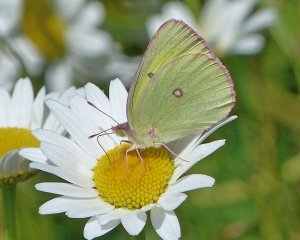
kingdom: Animalia
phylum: Arthropoda
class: Insecta
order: Lepidoptera
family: Pieridae
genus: Colias
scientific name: Colias interior
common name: Pink-edged Sulphur
